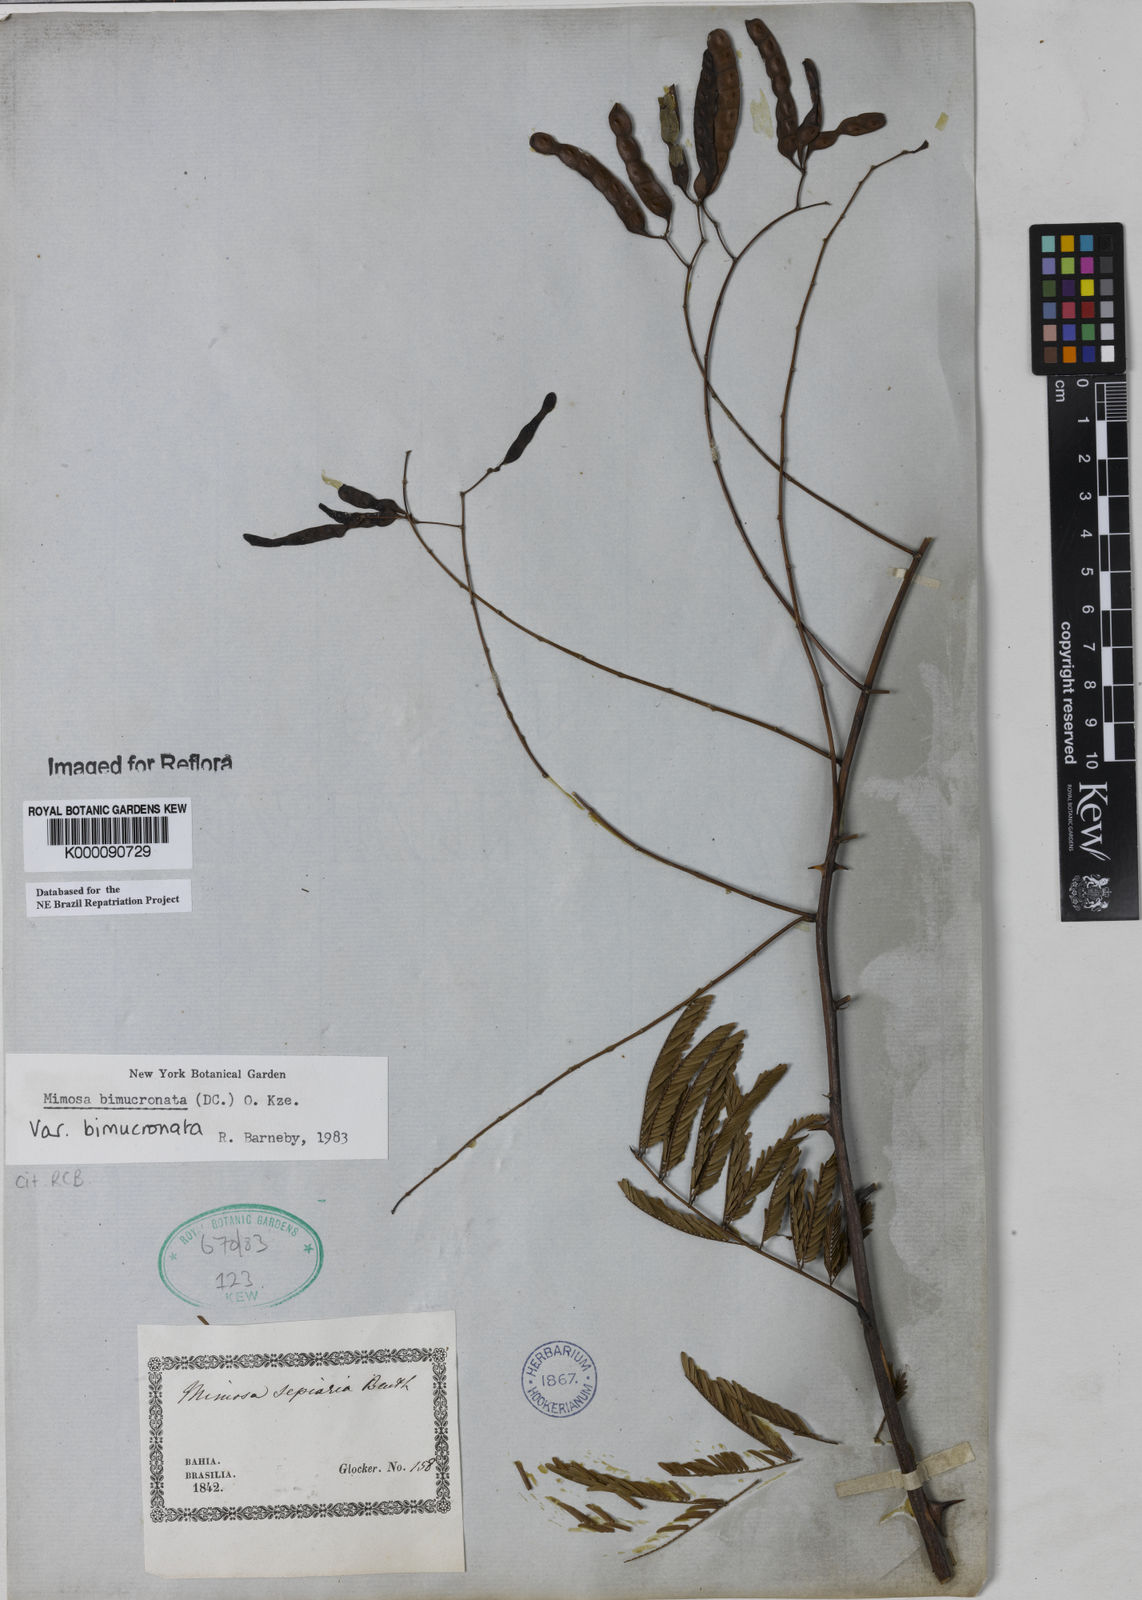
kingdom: Plantae
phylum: Tracheophyta
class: Magnoliopsida
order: Fabales
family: Fabaceae
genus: Mimosa
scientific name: Mimosa bimucronata
